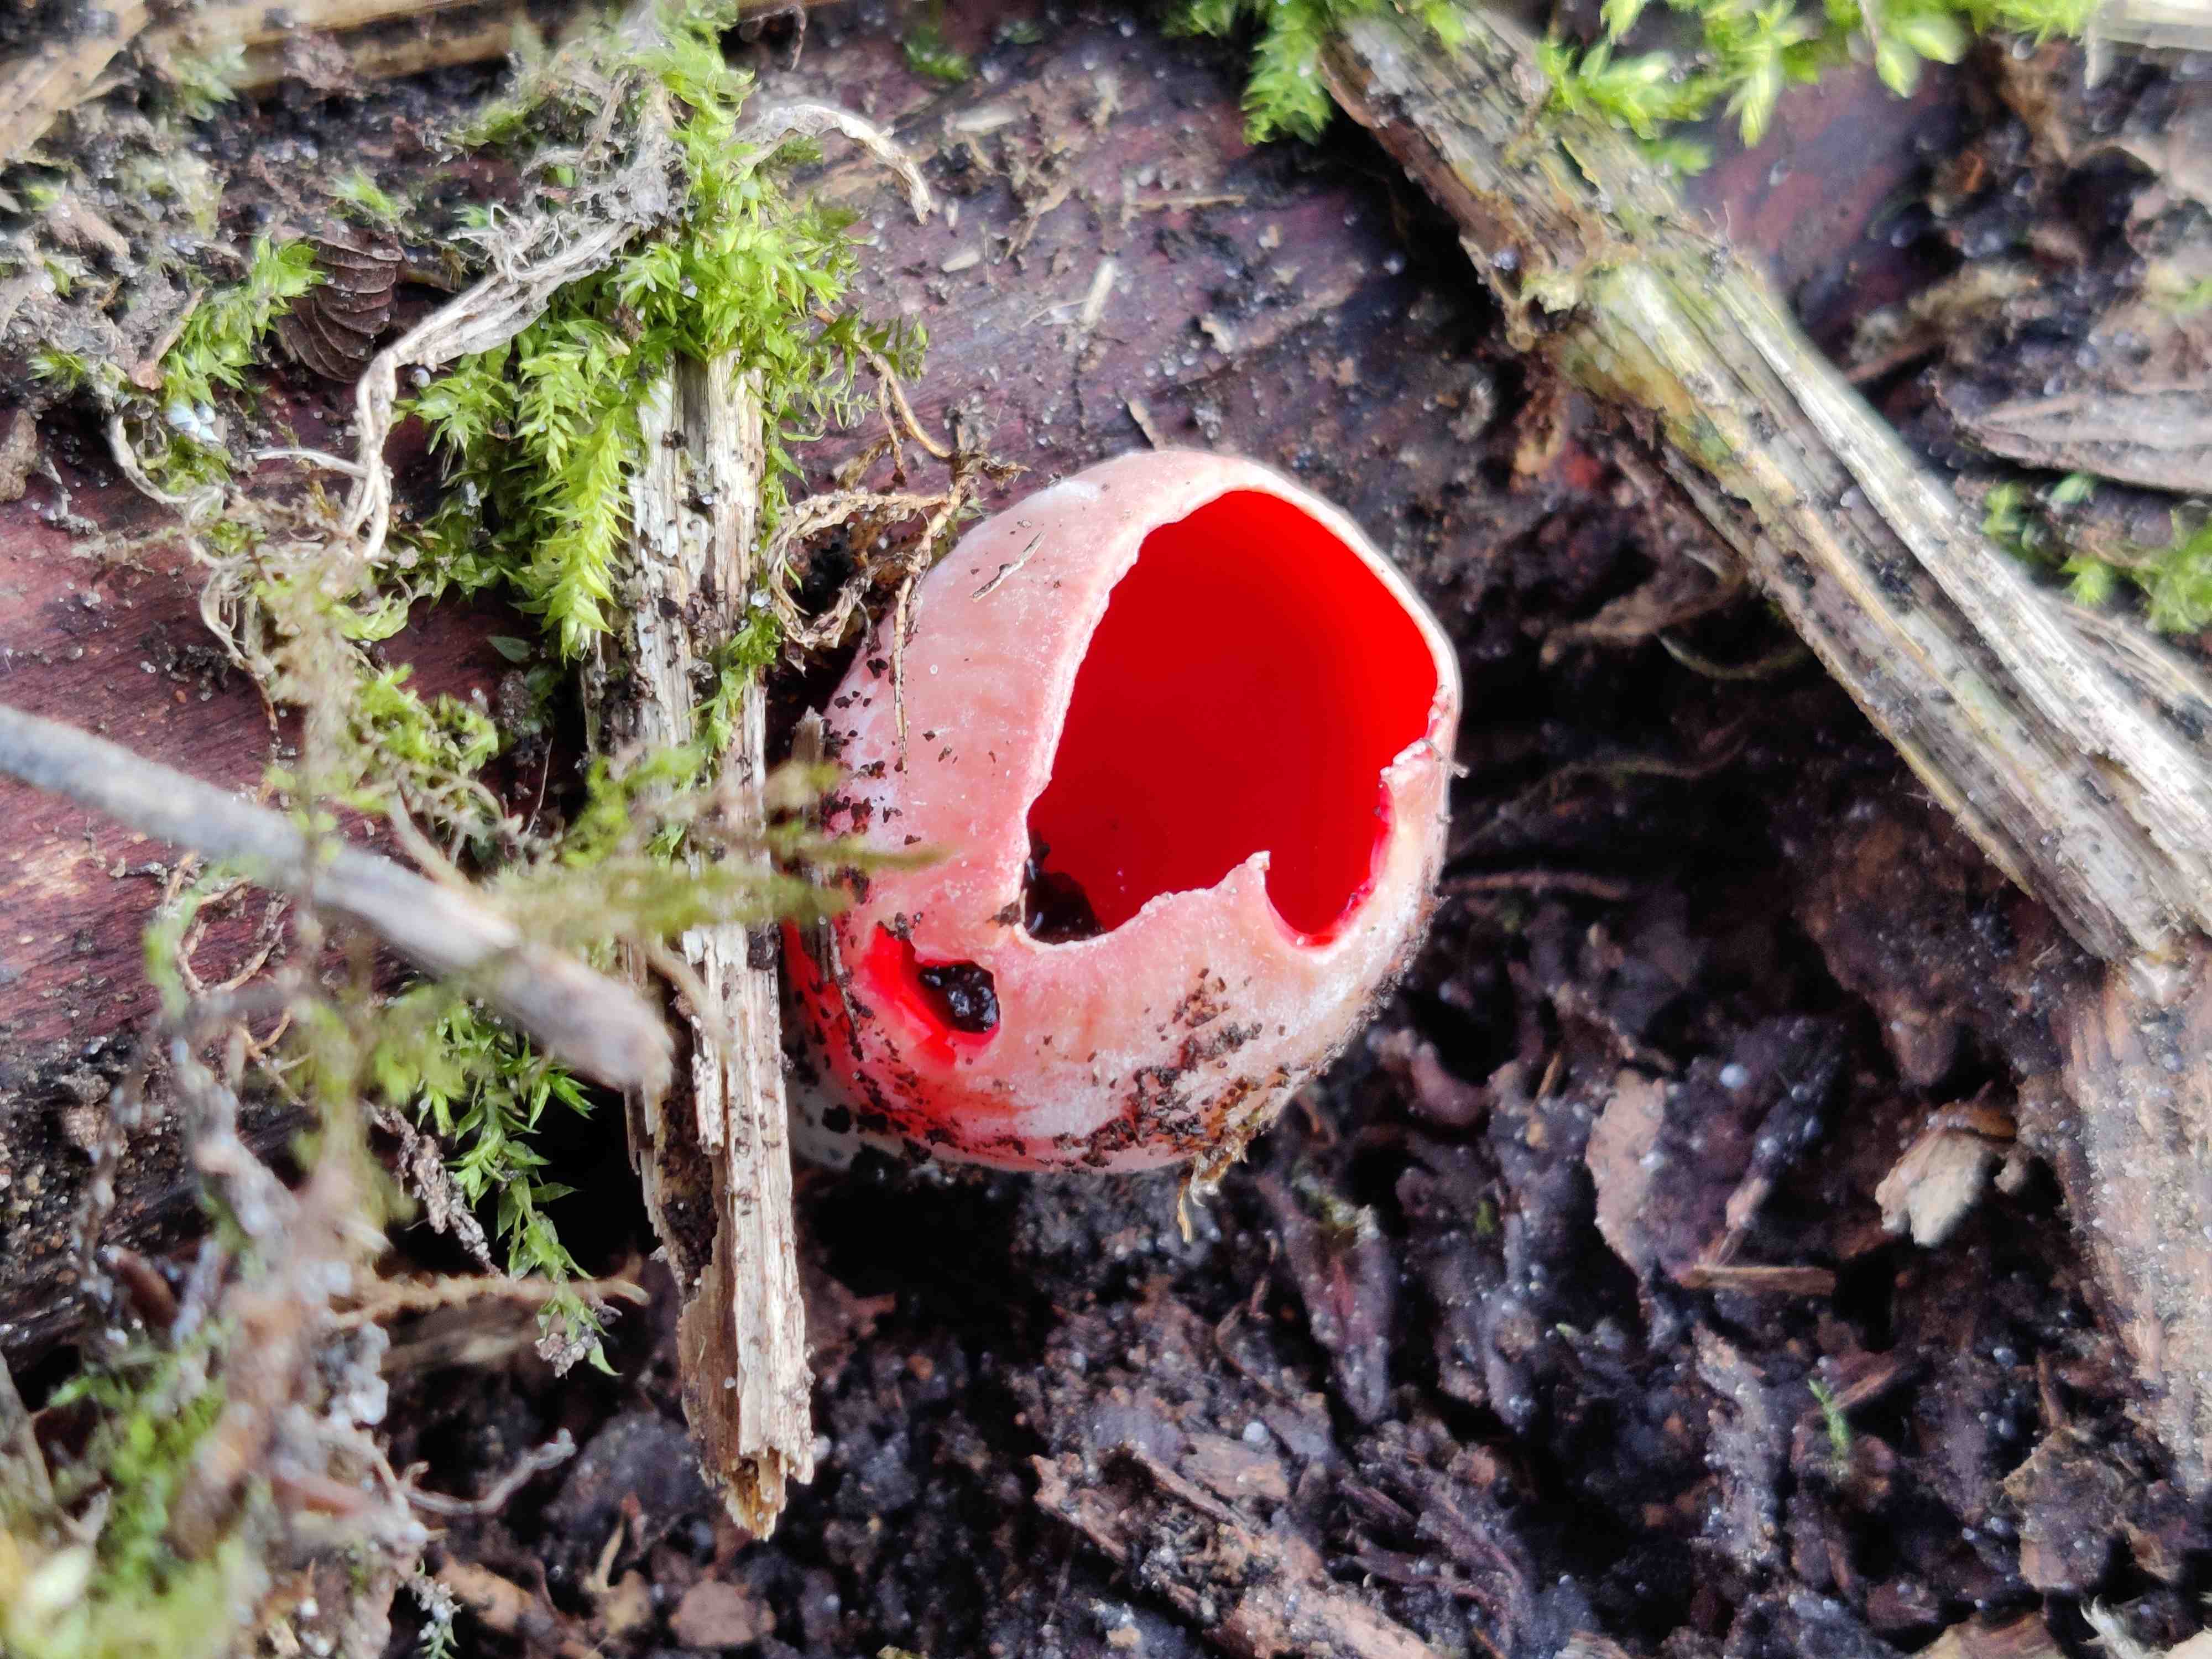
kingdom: Fungi
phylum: Ascomycota
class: Pezizomycetes
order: Pezizales
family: Sarcoscyphaceae
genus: Sarcoscypha
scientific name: Sarcoscypha austriaca
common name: krølhåret pragtbæger
